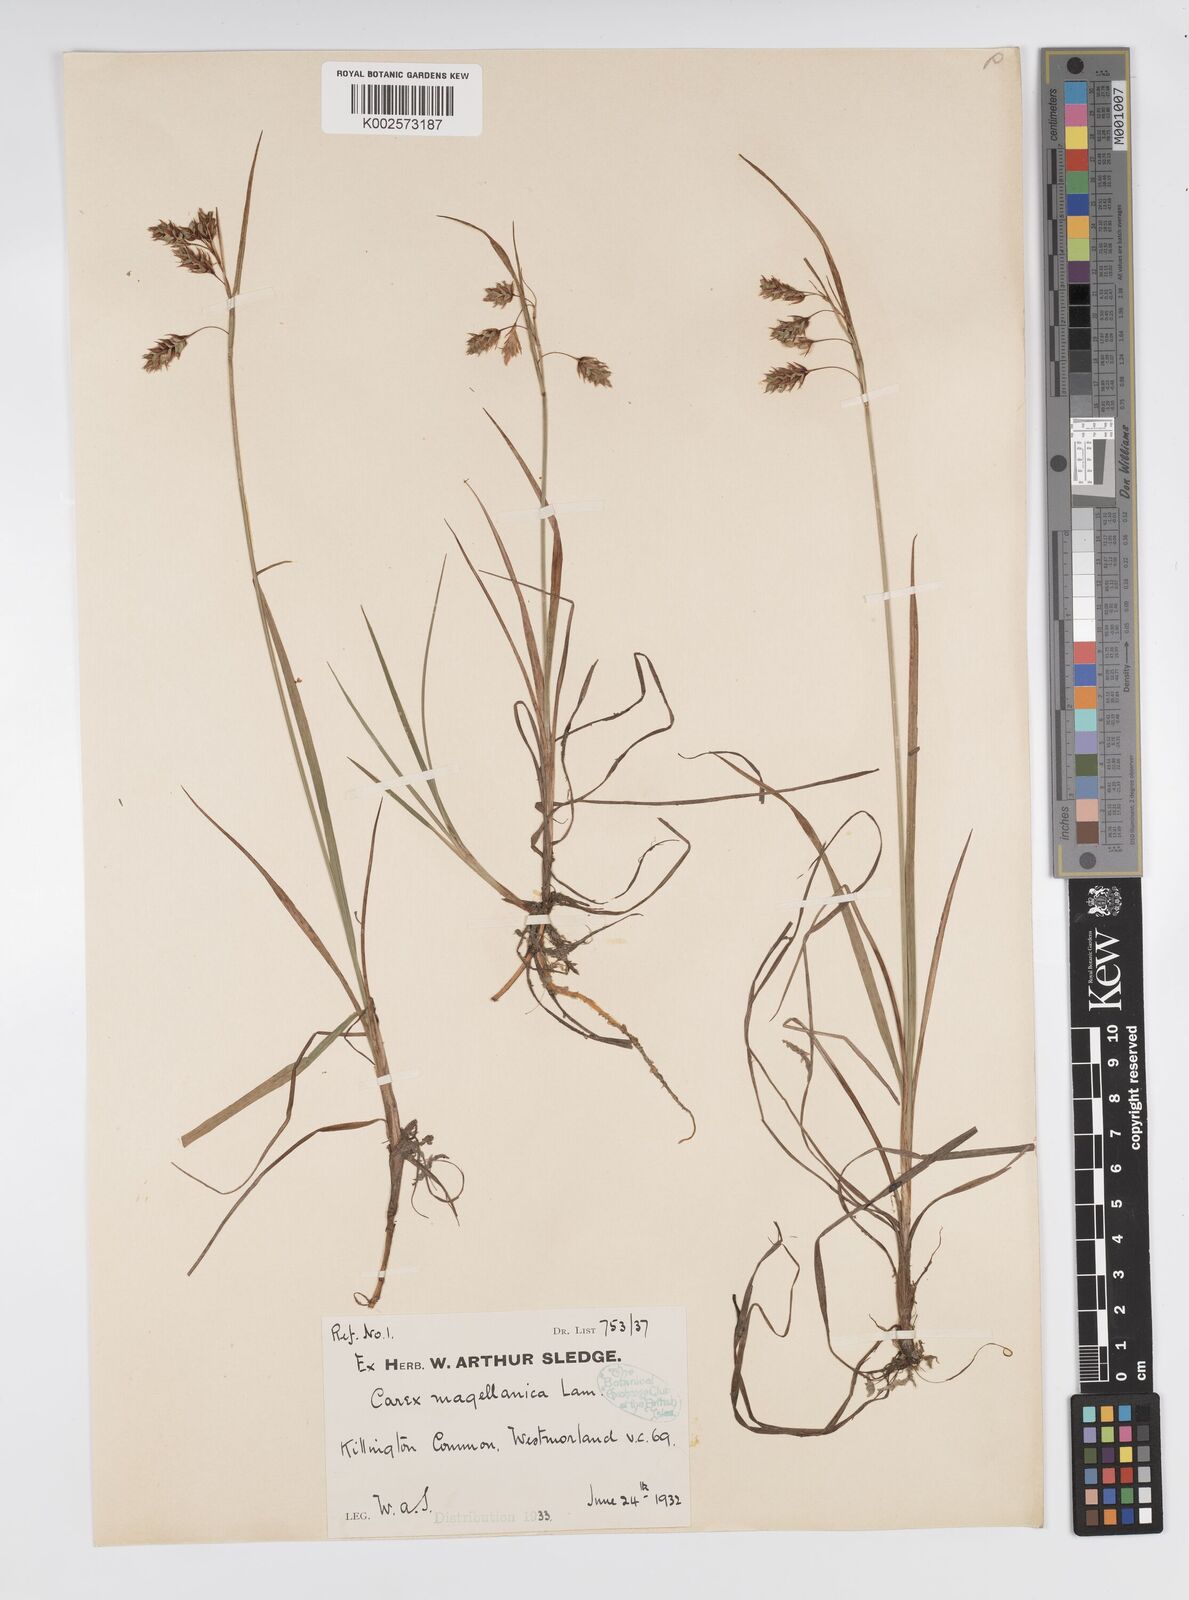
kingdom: Plantae
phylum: Tracheophyta
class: Liliopsida
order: Poales
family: Cyperaceae
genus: Carex
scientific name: Carex magellanica
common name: Bog sedge
